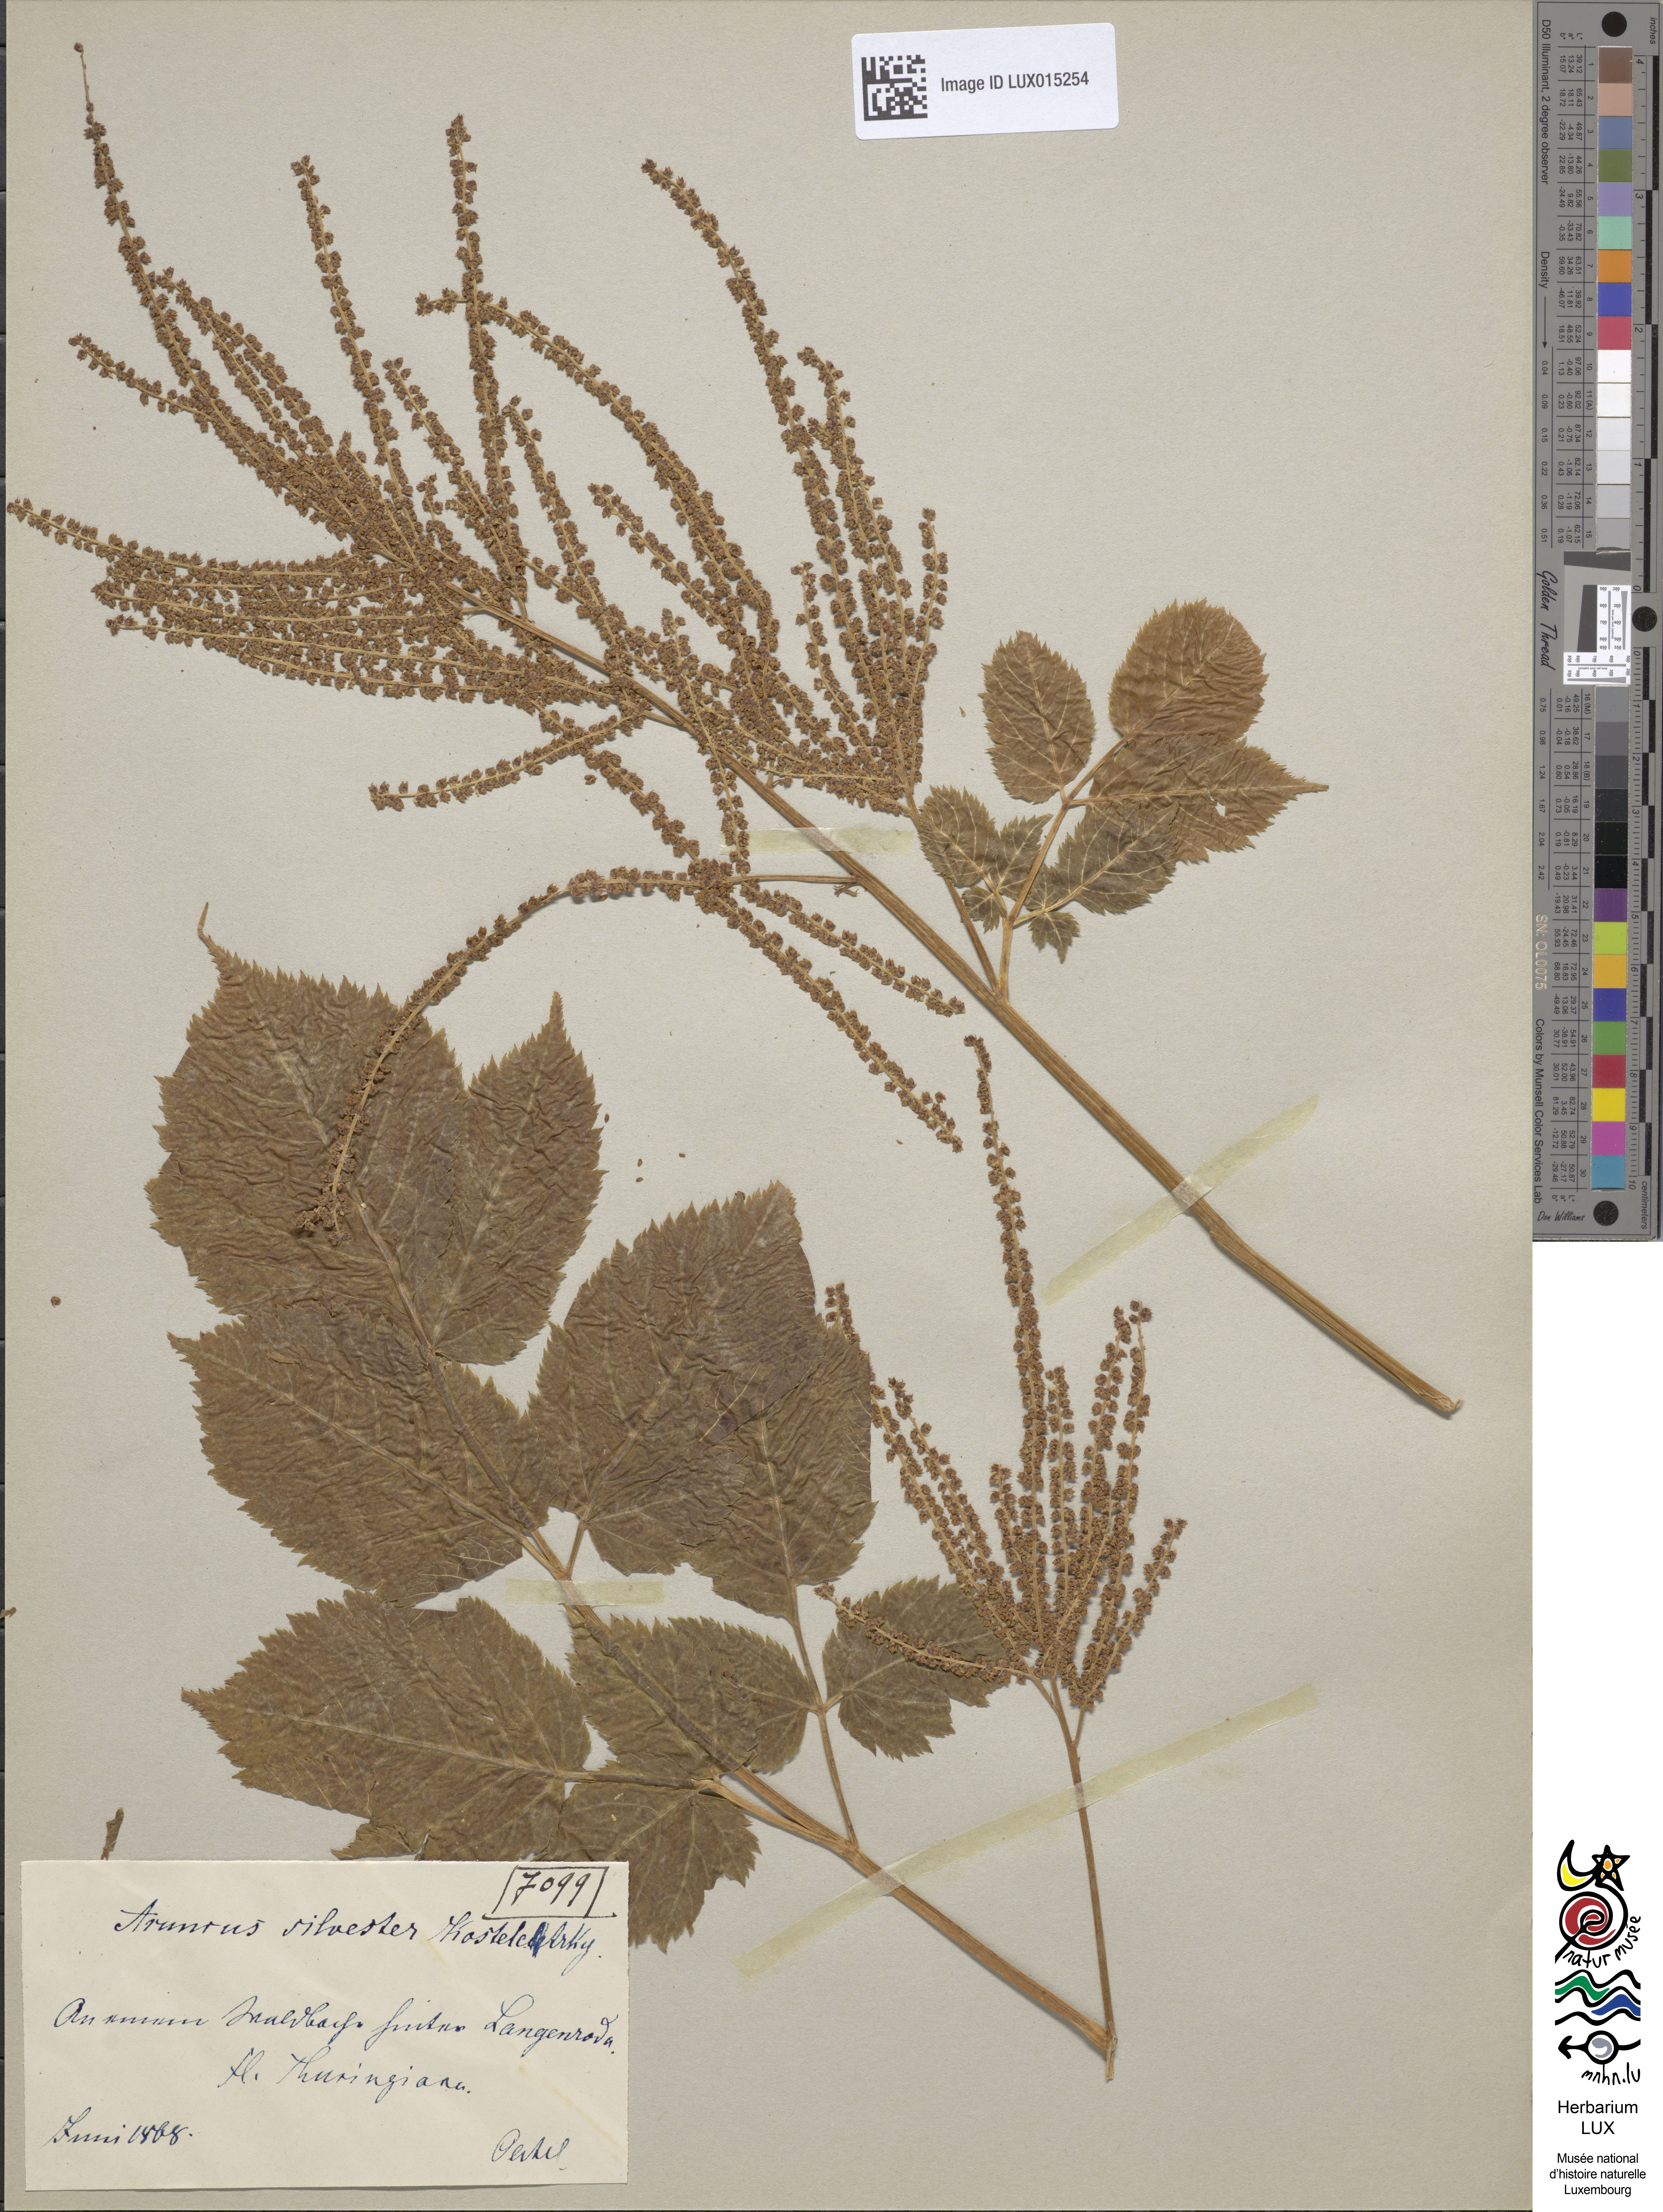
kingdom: Plantae
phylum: Tracheophyta
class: Magnoliopsida
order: Rosales
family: Rosaceae
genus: Aruncus
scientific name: Aruncus dioicus
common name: Buck's-beard
